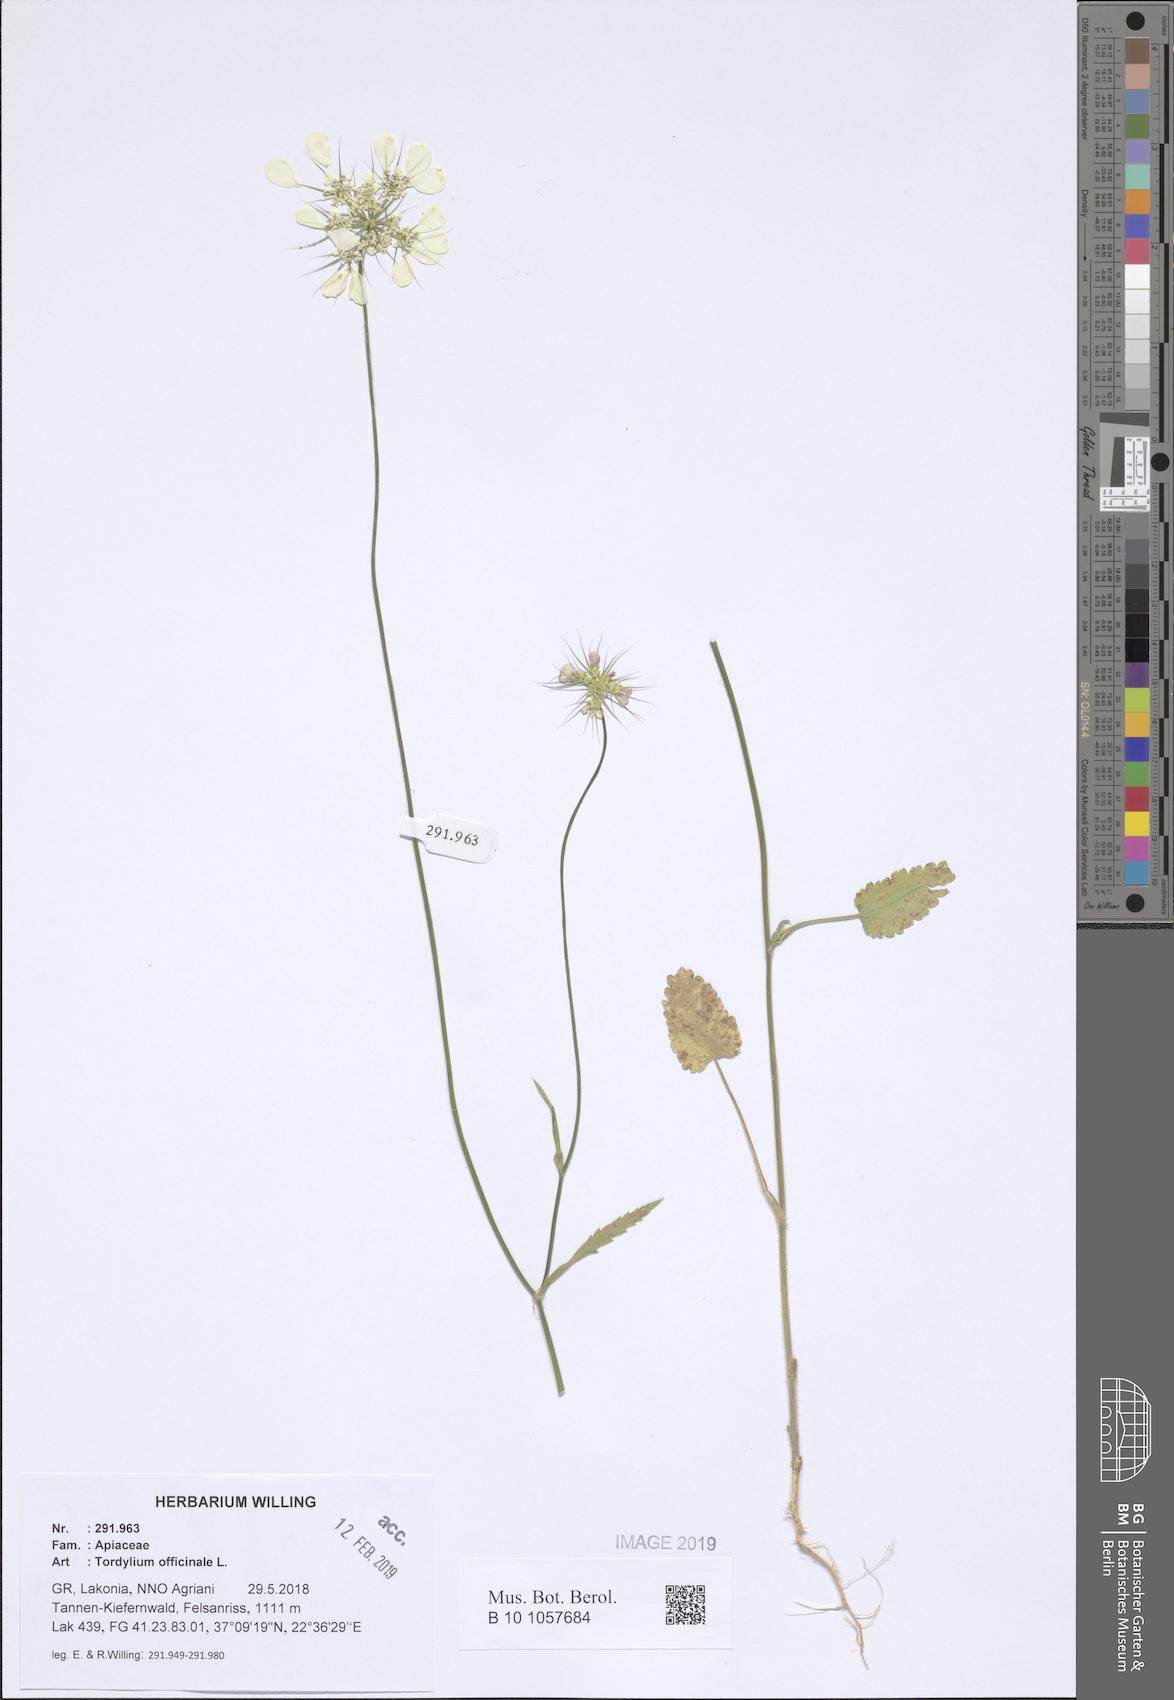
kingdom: Plantae
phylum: Tracheophyta
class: Magnoliopsida
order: Apiales
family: Apiaceae
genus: Tordylium
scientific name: Tordylium officinale
